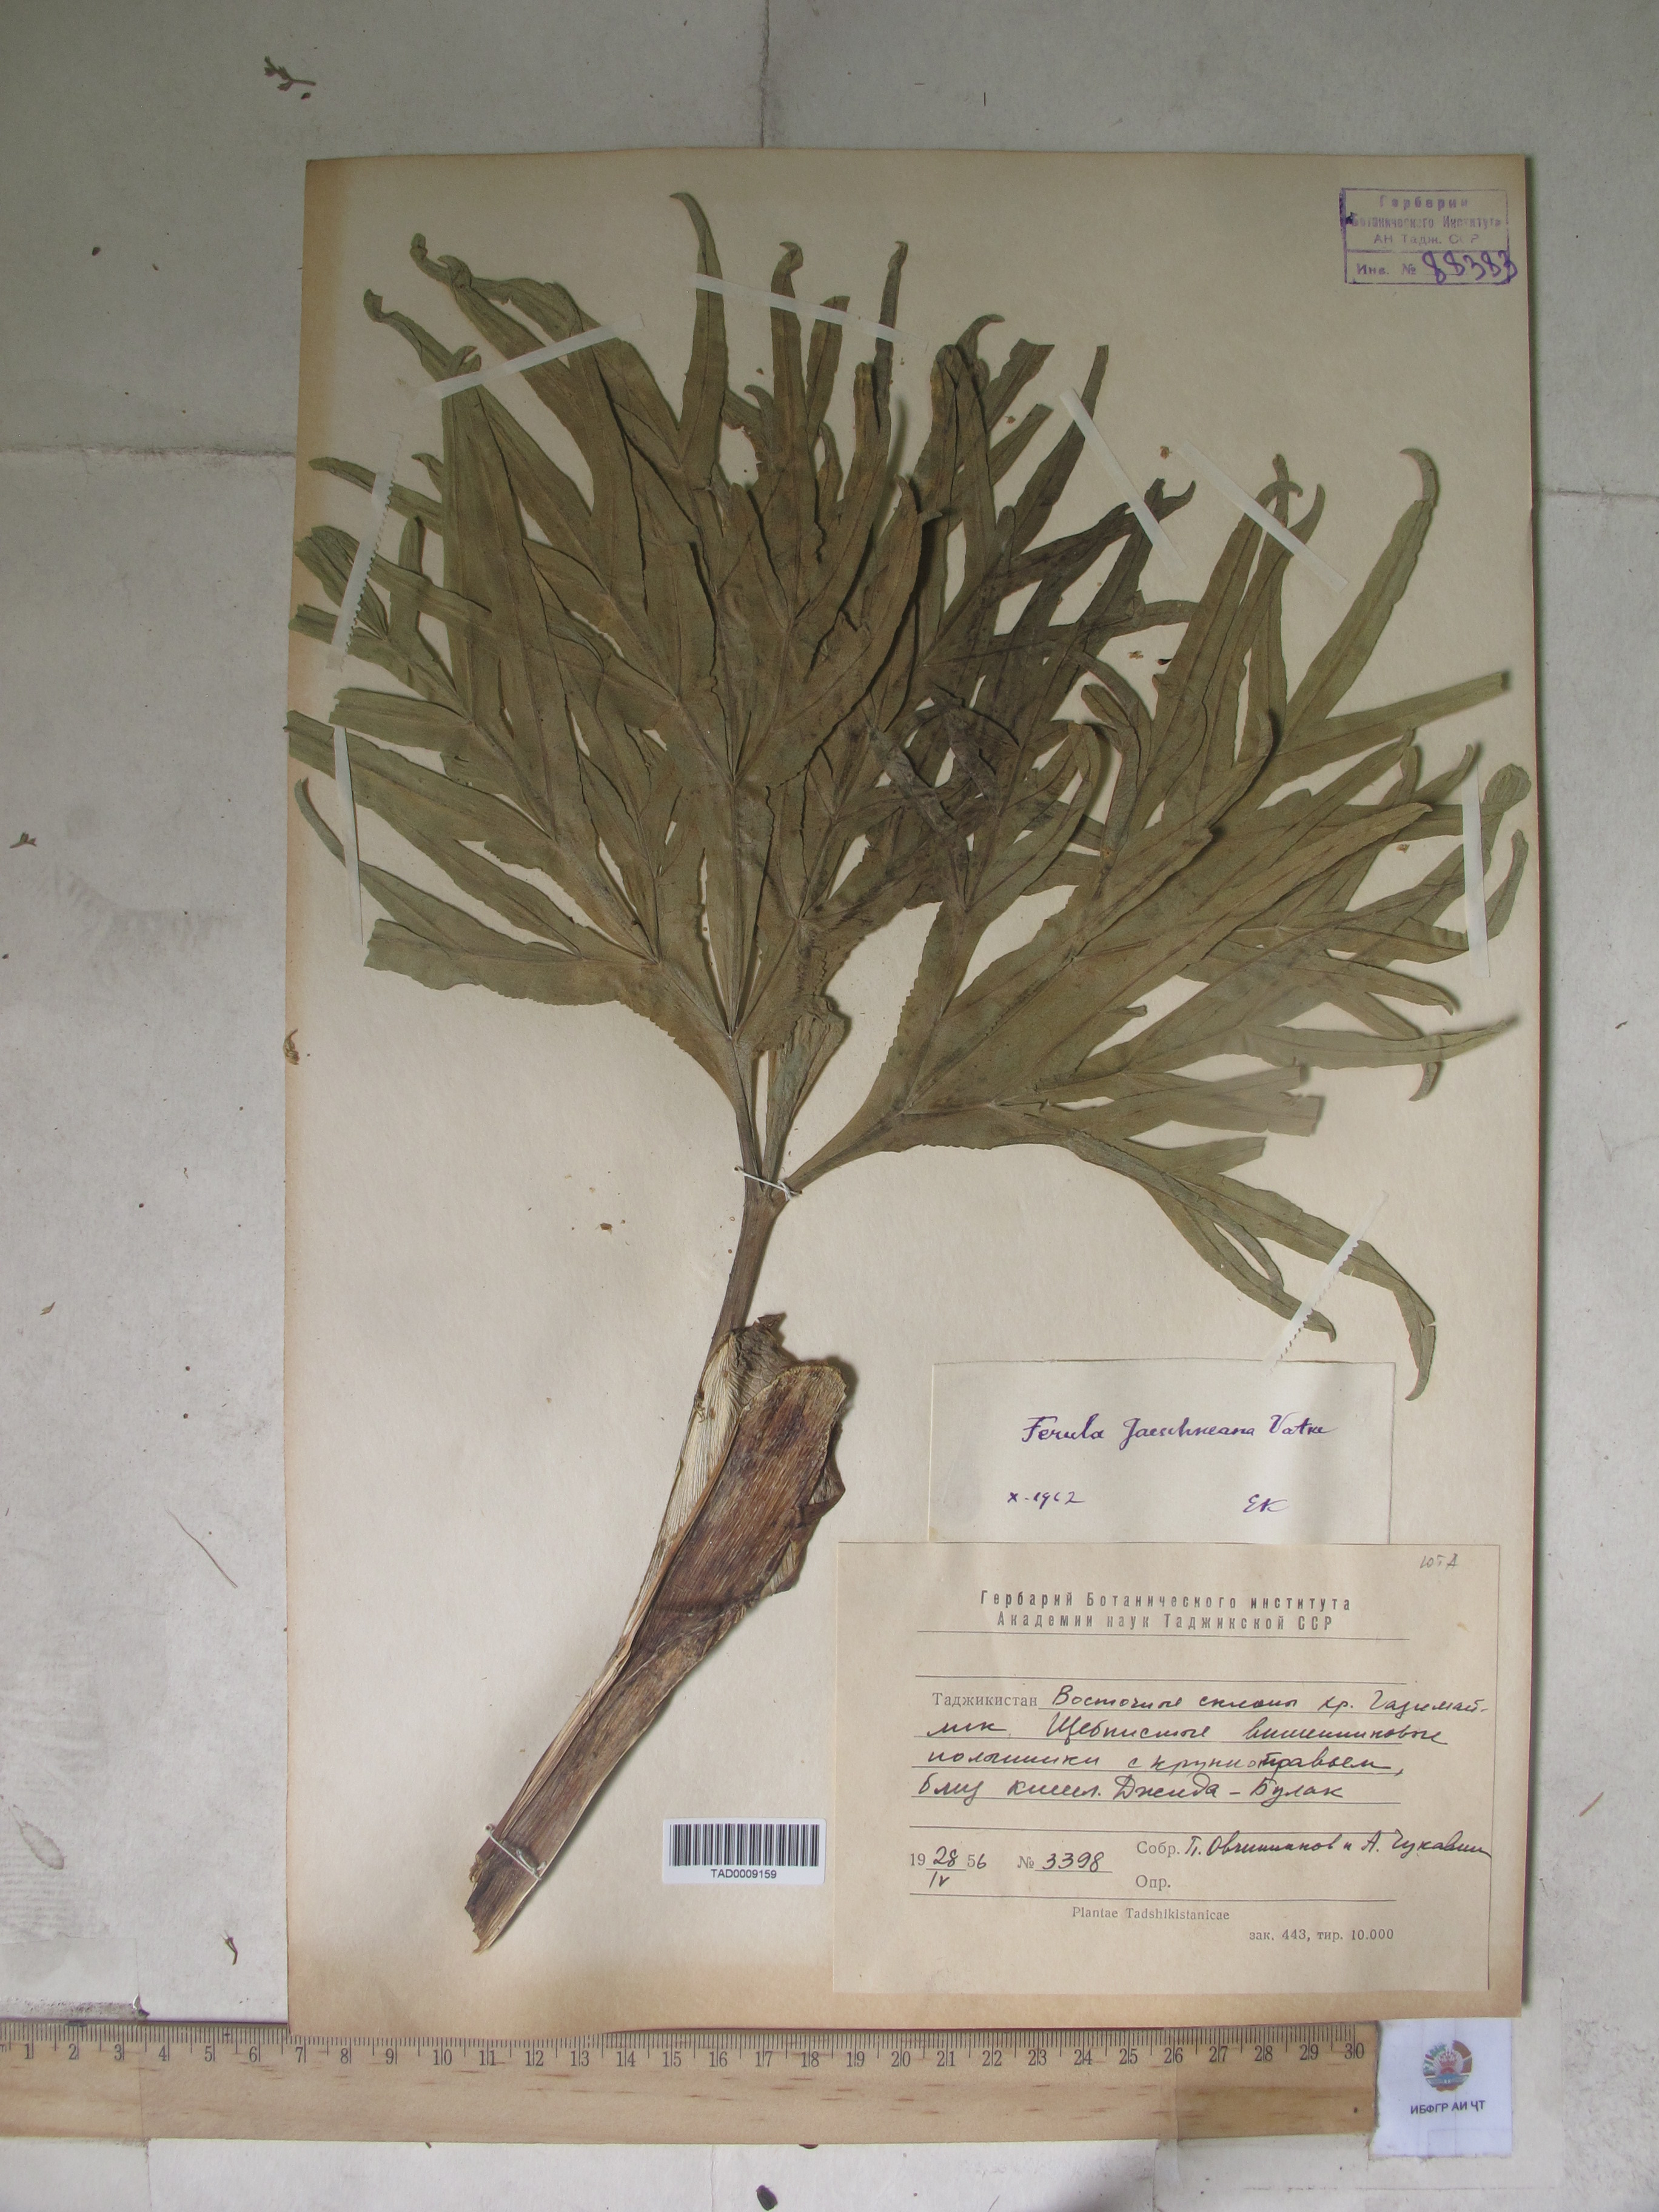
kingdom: Plantae
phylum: Tracheophyta
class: Magnoliopsida
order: Apiales
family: Apiaceae
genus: Ferula
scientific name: Ferula jaeschkeana
